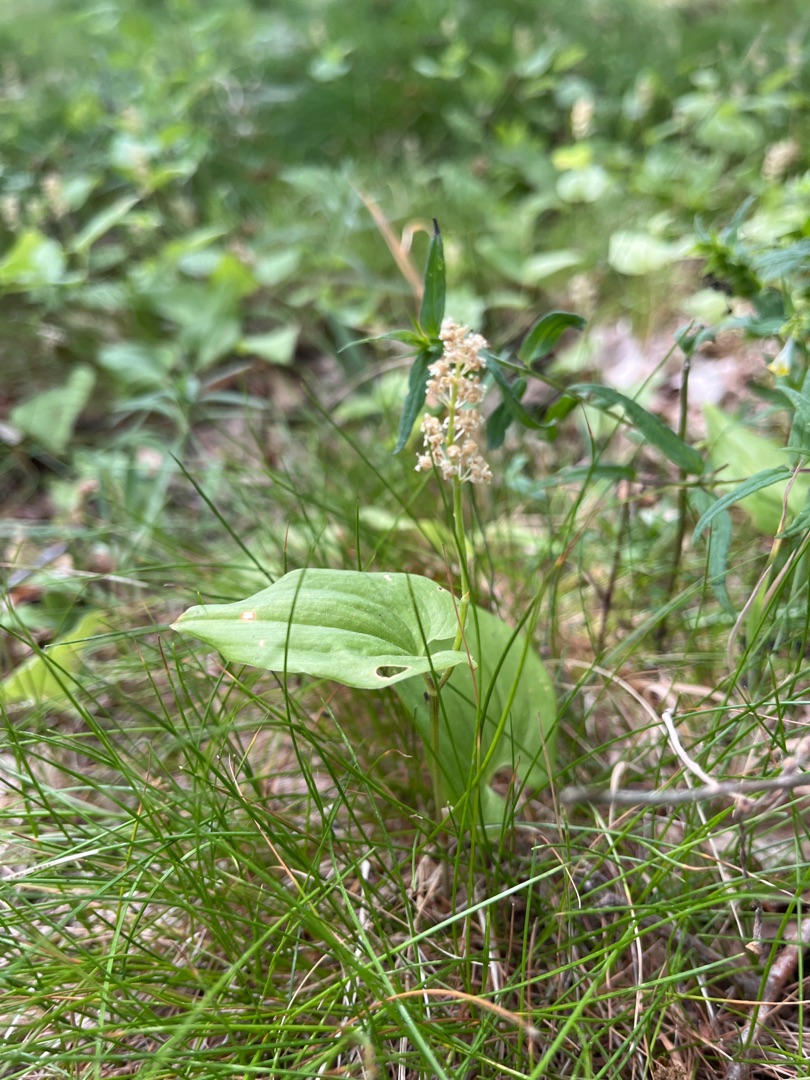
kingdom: Plantae
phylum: Tracheophyta
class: Liliopsida
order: Asparagales
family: Asparagaceae
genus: Maianthemum
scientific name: Maianthemum bifolium
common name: Majblomst
